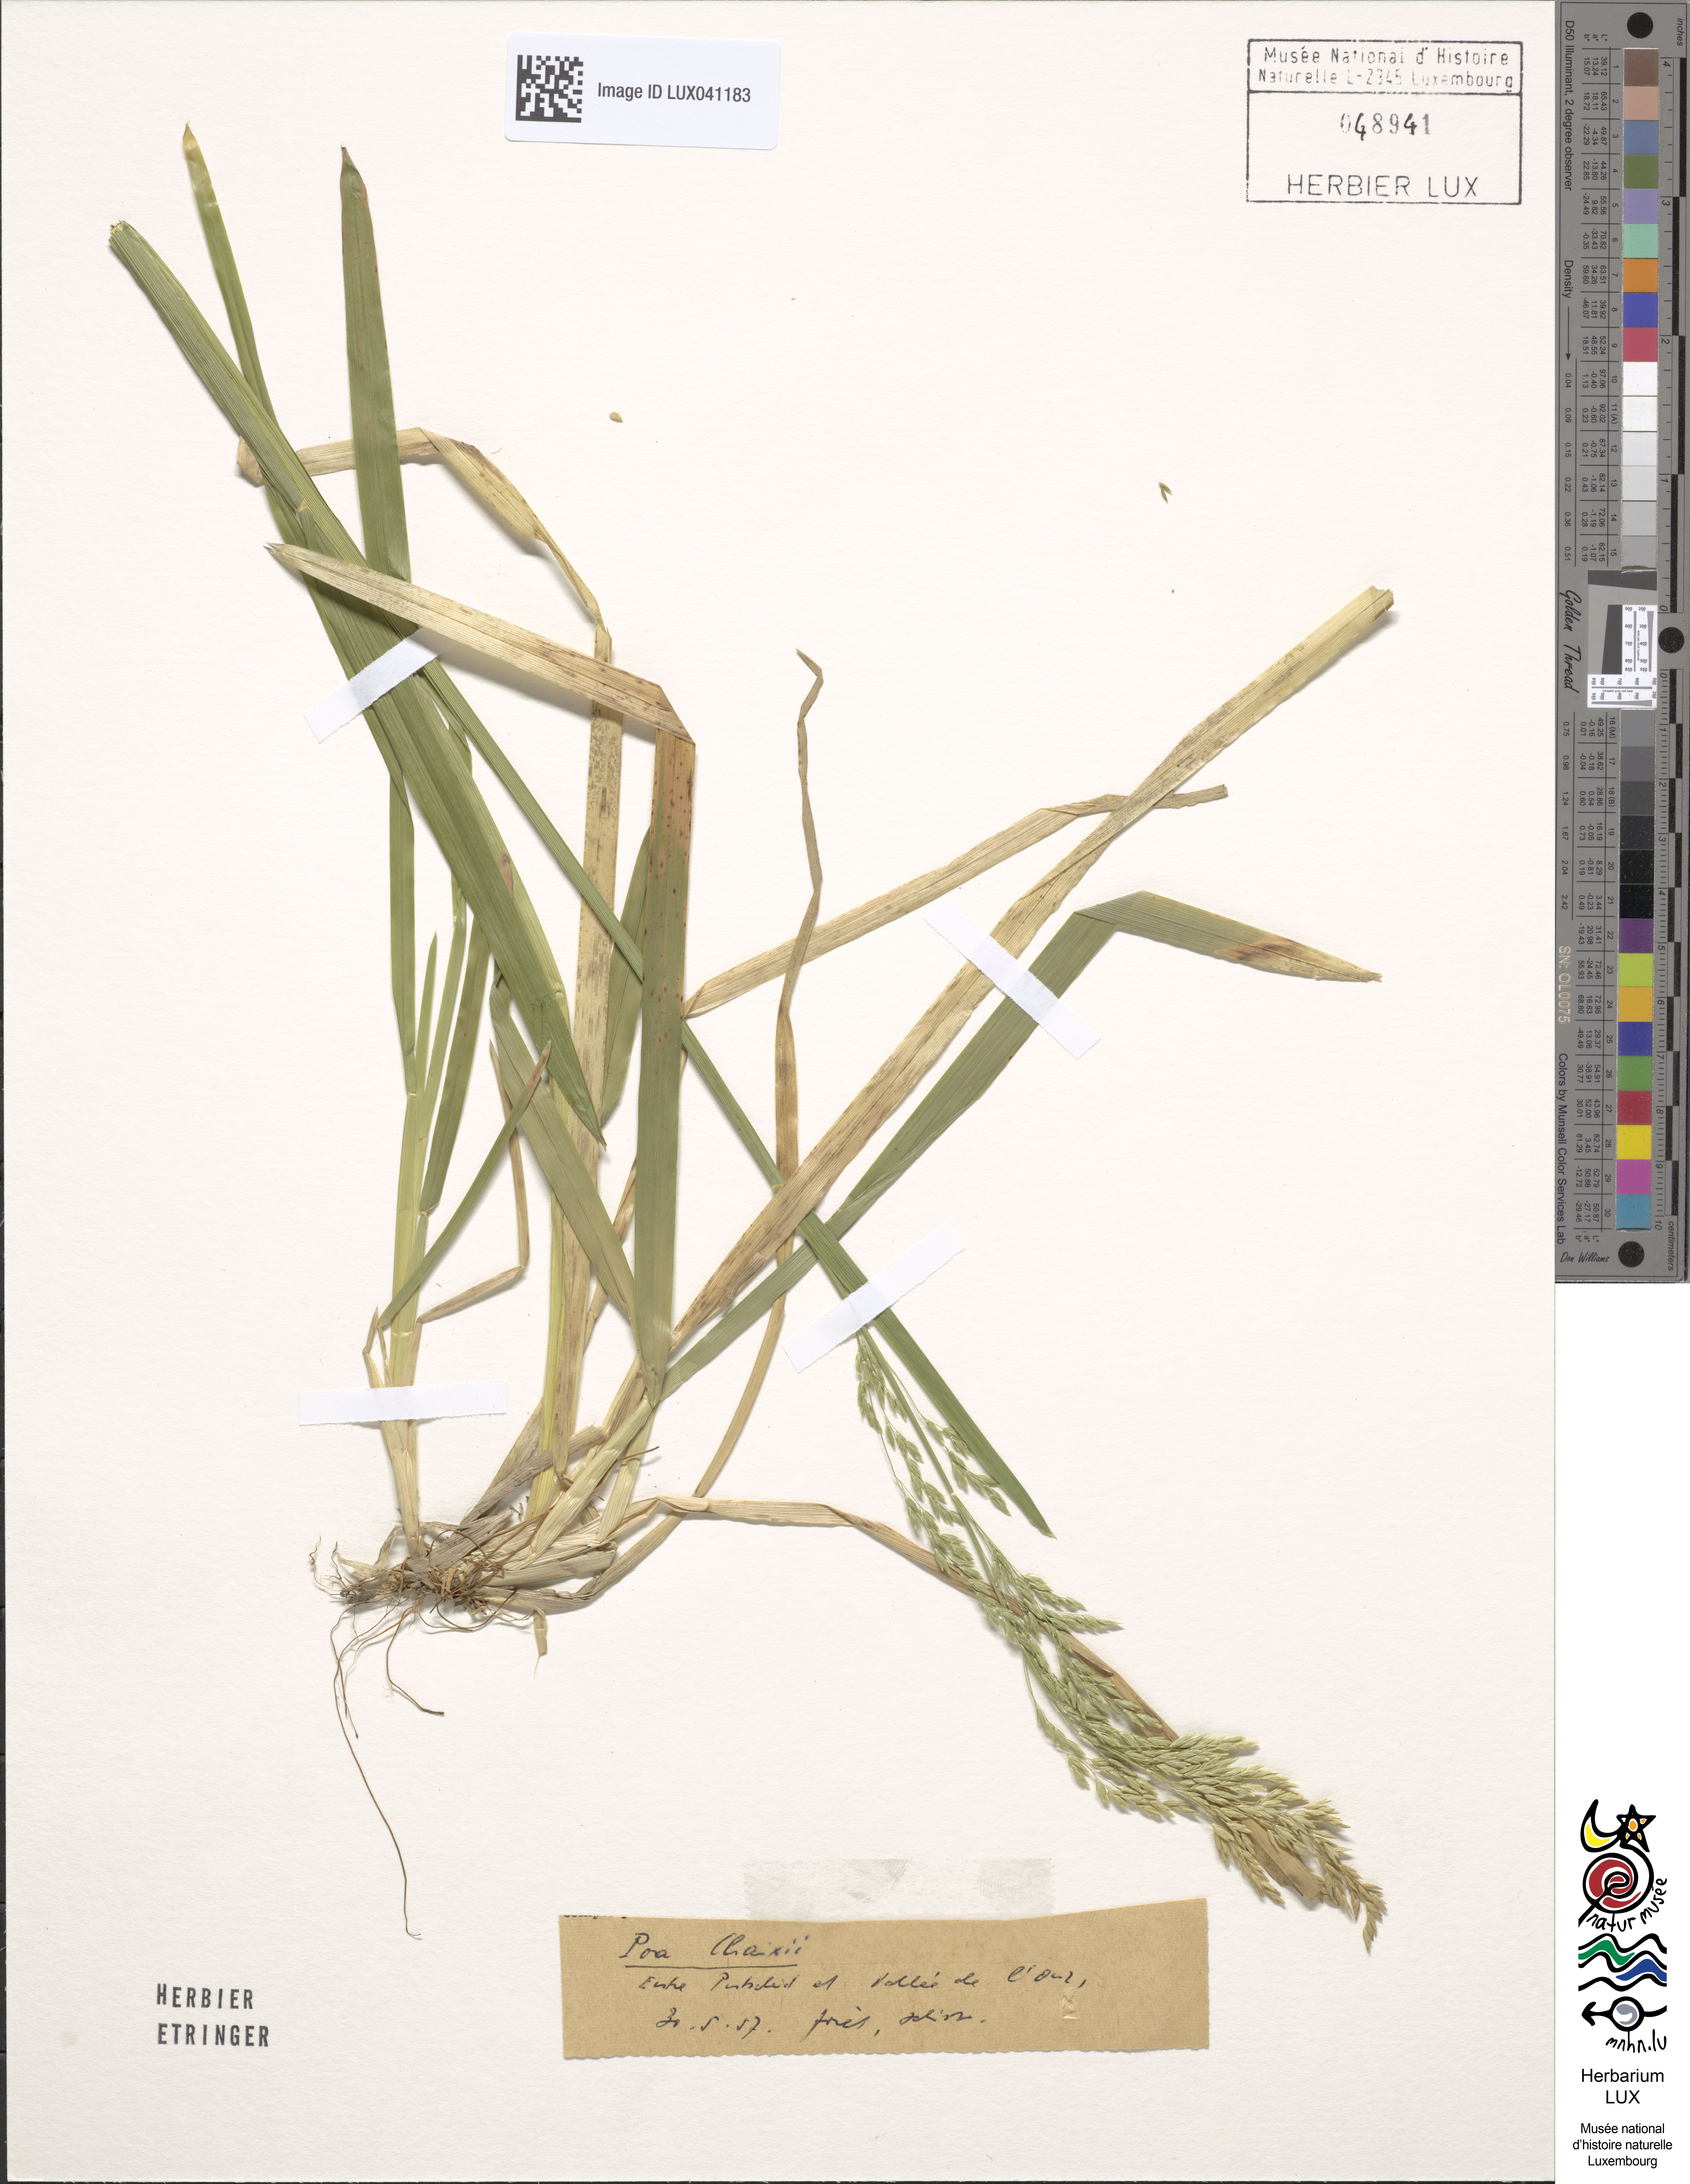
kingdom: Plantae
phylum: Tracheophyta
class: Liliopsida
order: Poales
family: Poaceae
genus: Poa
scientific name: Poa chaixii
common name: Broad-leaved meadow-grass
